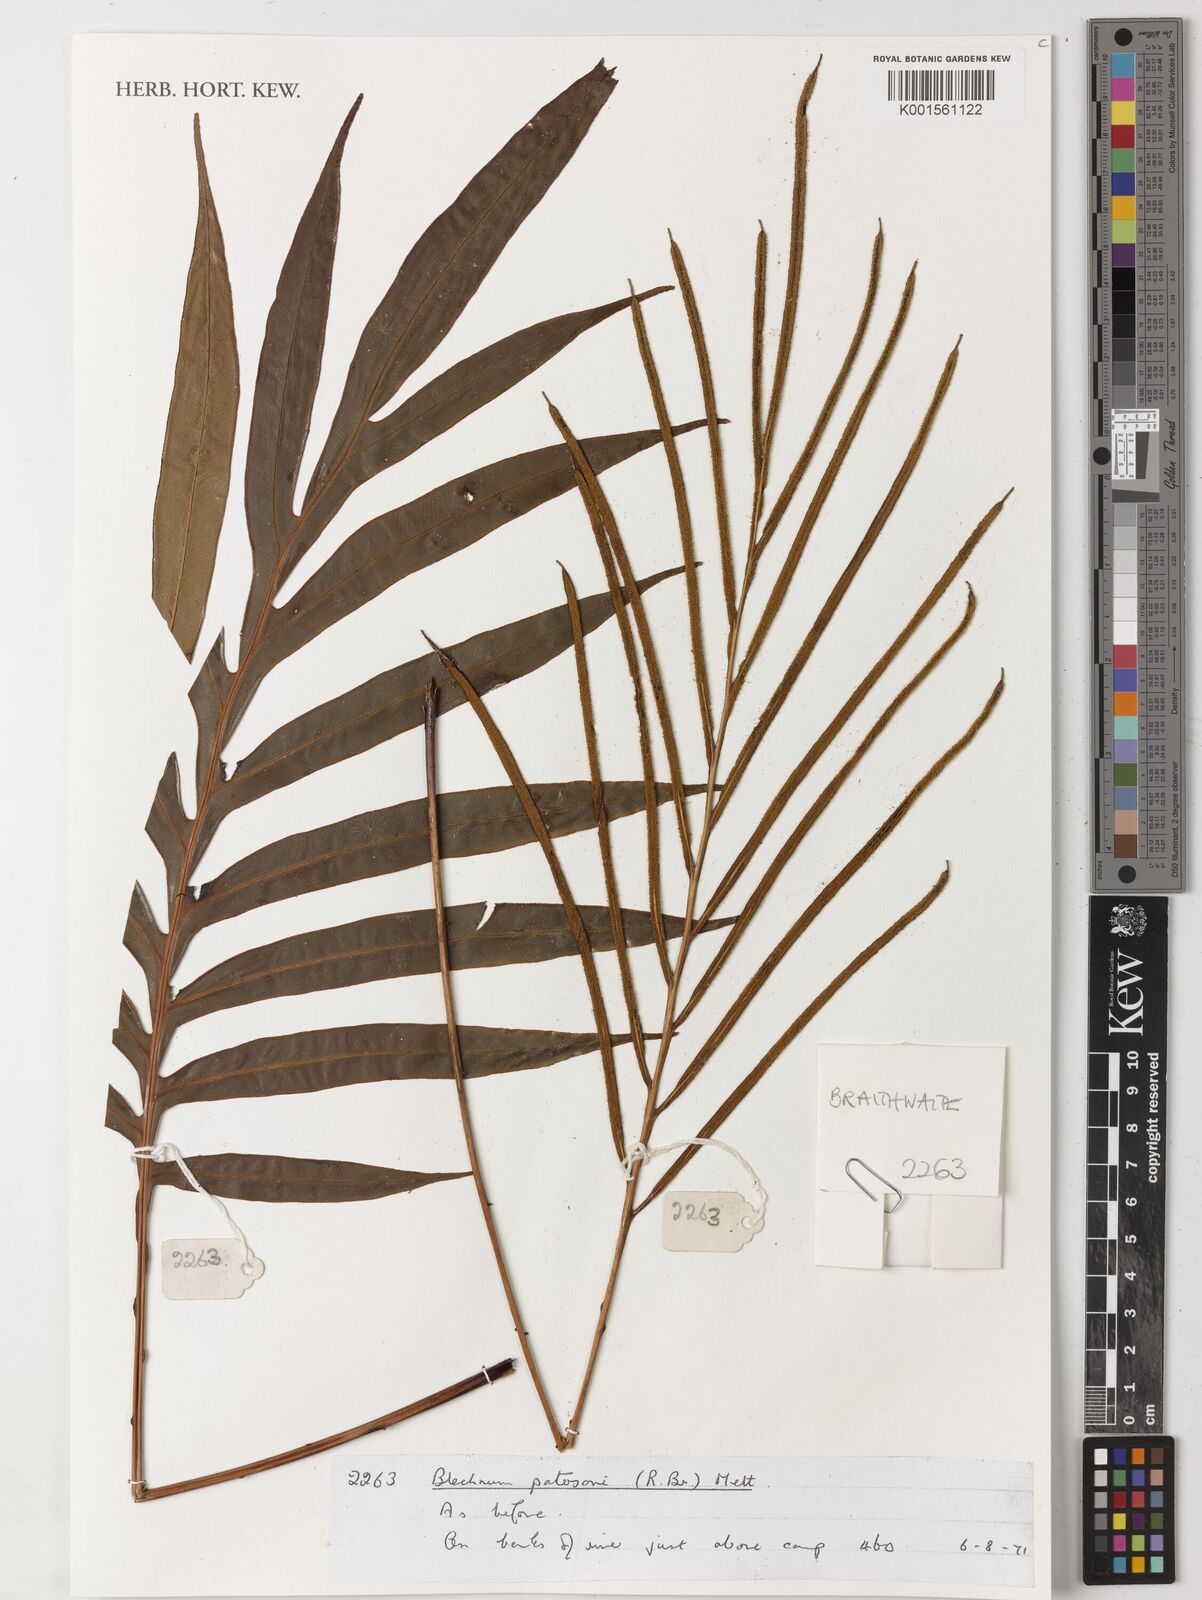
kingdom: Plantae
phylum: Tracheophyta
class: Polypodiopsida
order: Polypodiales
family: Blechnaceae
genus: Austroblechnum
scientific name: Austroblechnum patersonii
